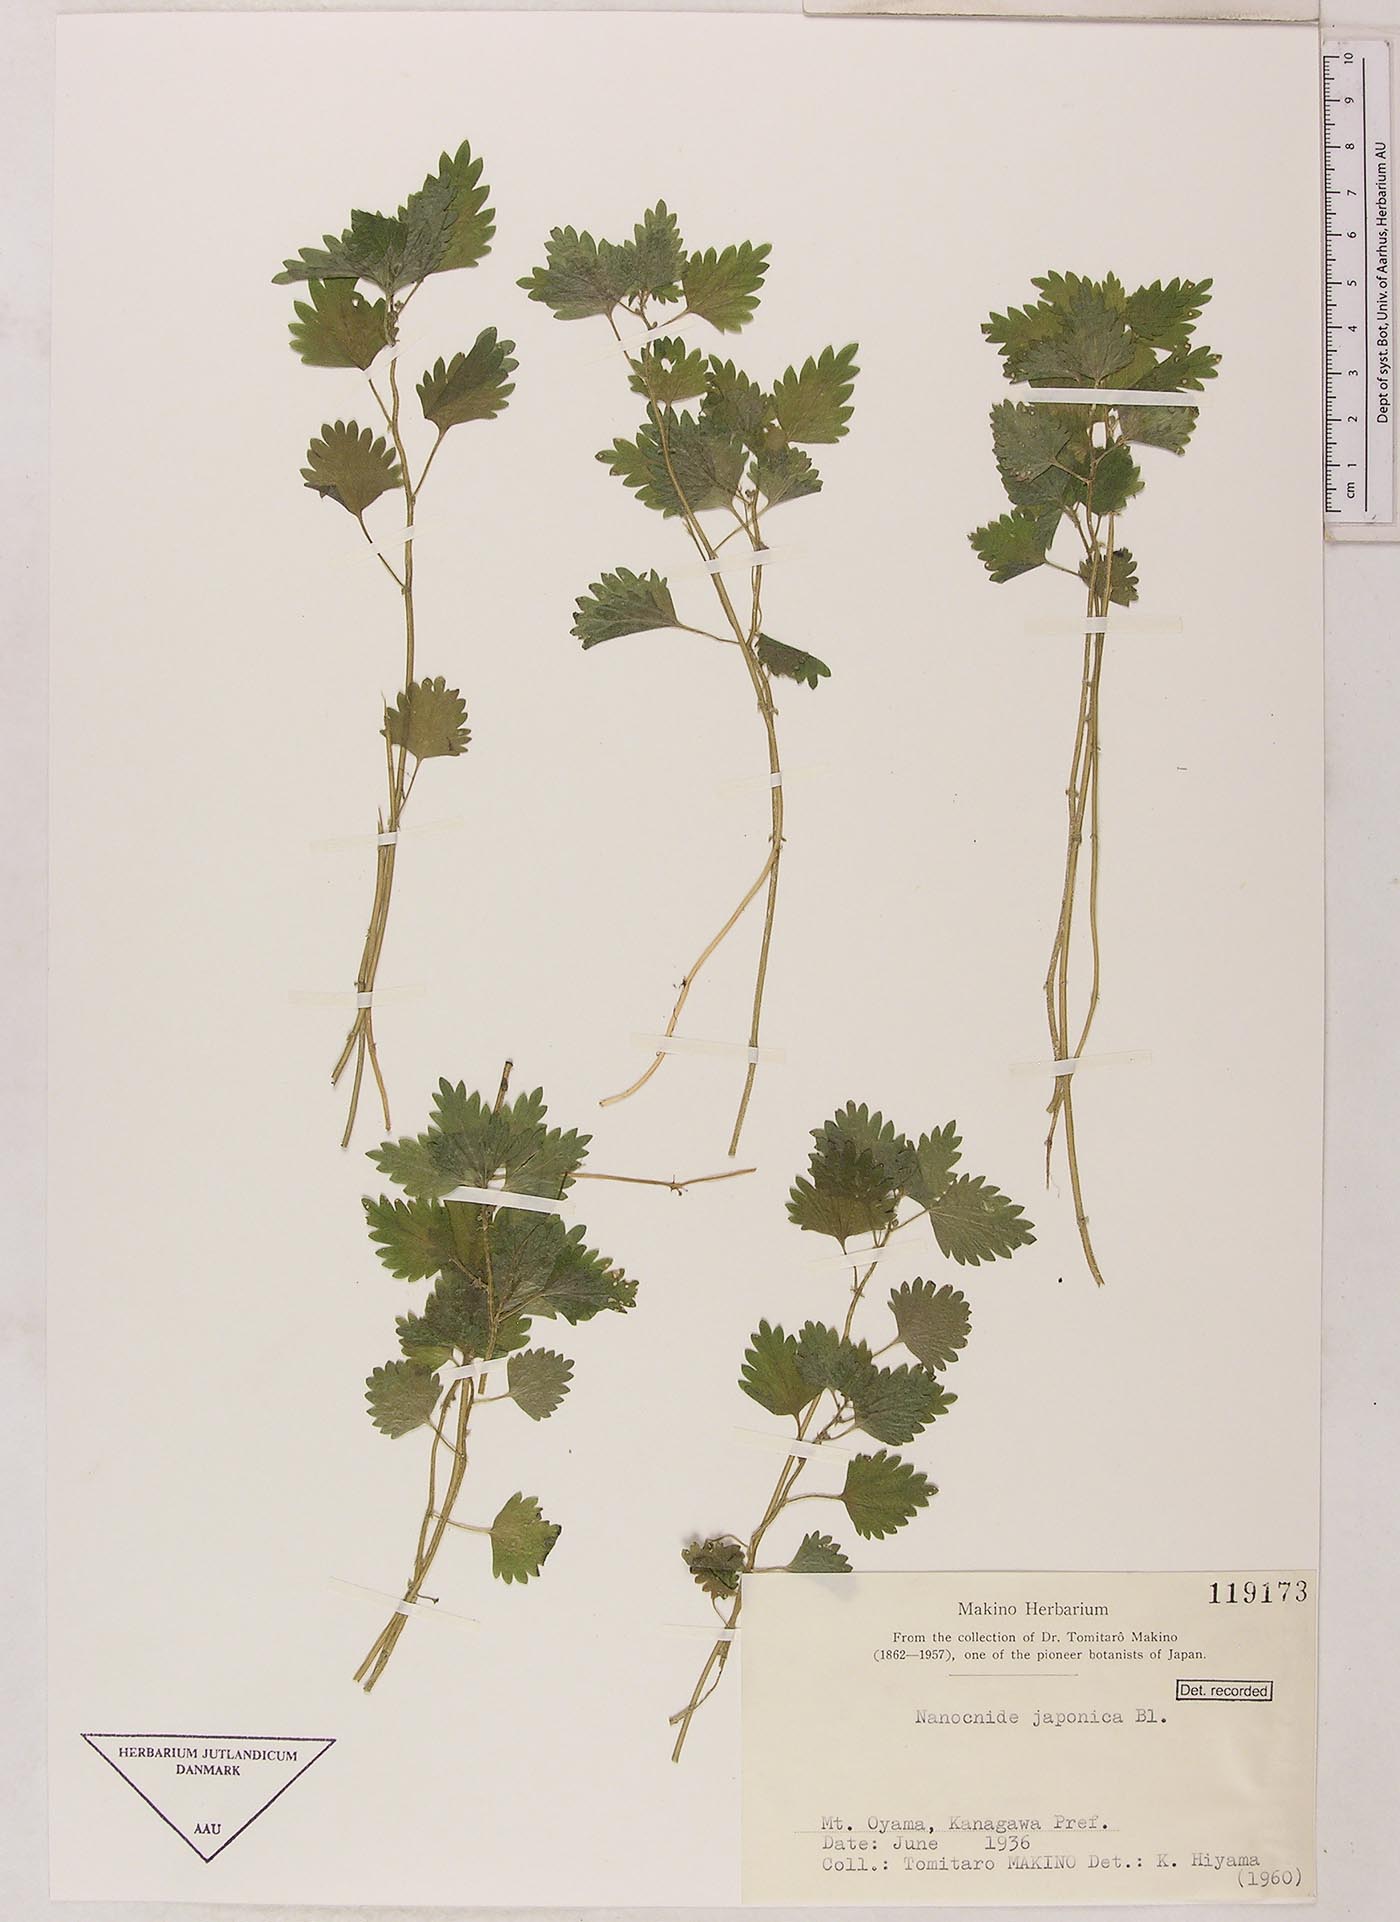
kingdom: Plantae
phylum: Tracheophyta
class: Magnoliopsida
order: Rosales
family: Urticaceae
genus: Nanocnide
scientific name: Nanocnide lobata
